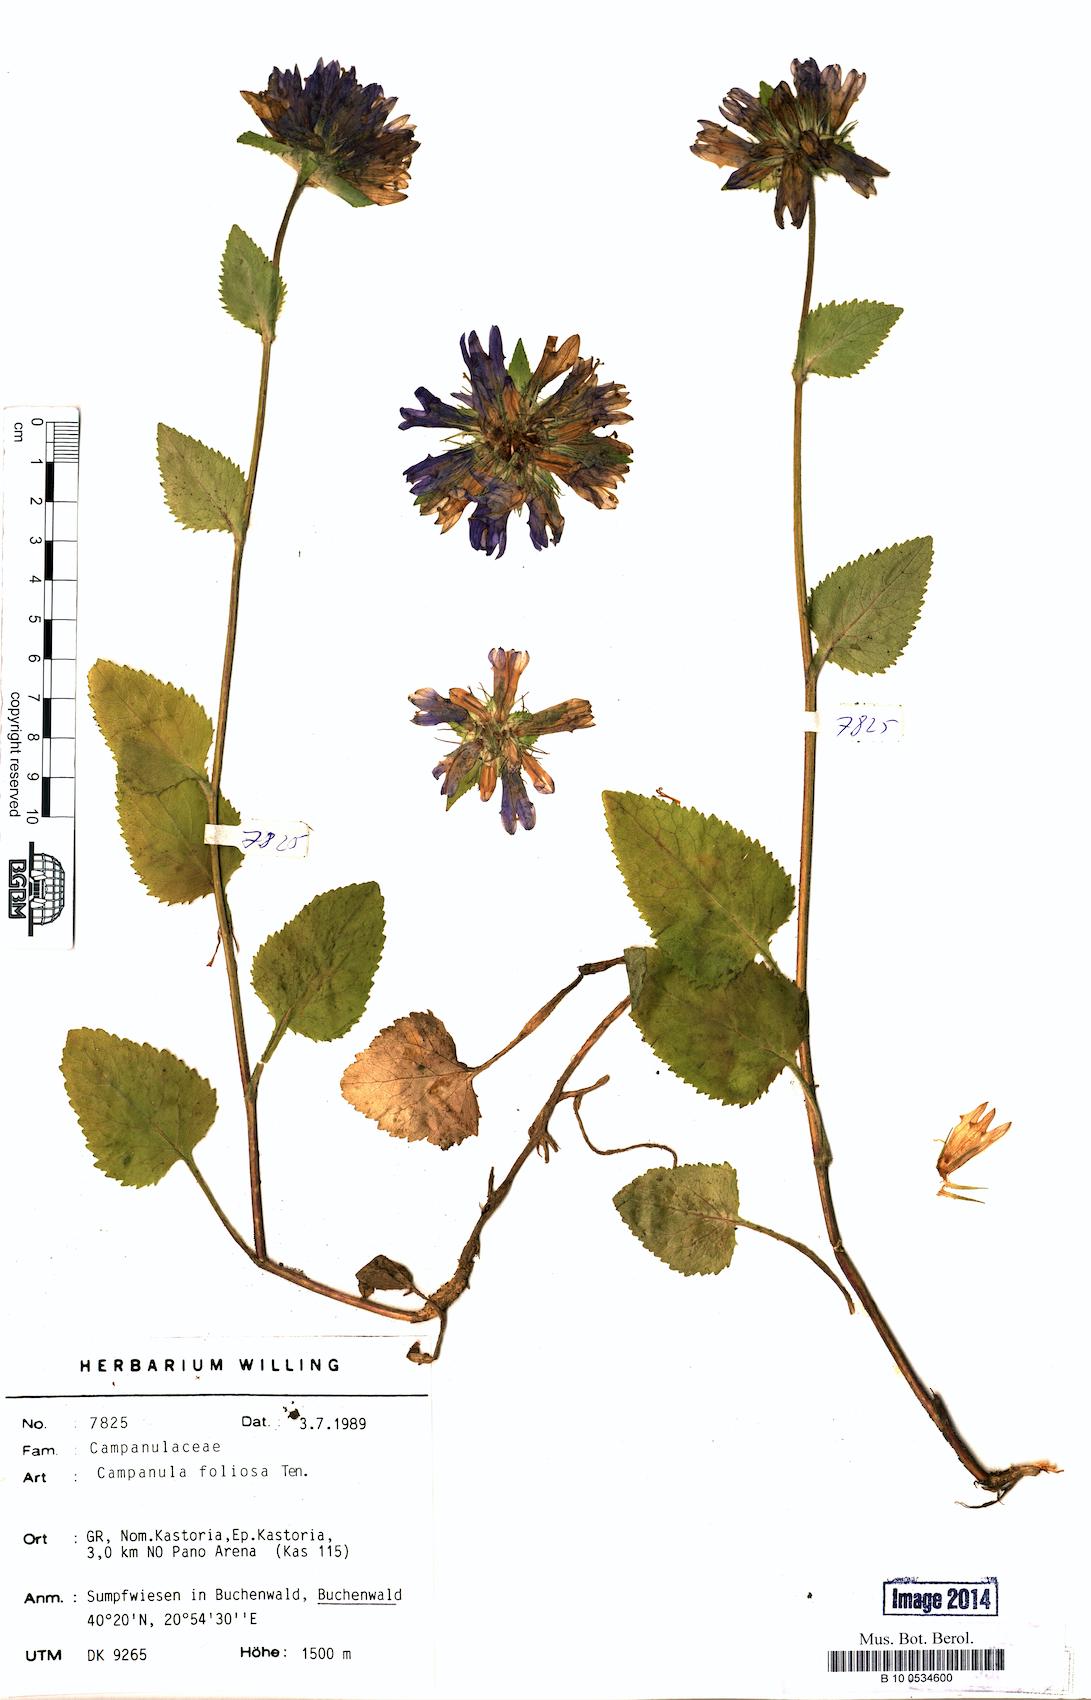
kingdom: Plantae
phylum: Tracheophyta
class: Magnoliopsida
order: Asterales
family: Campanulaceae
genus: Campanula
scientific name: Campanula foliosa
